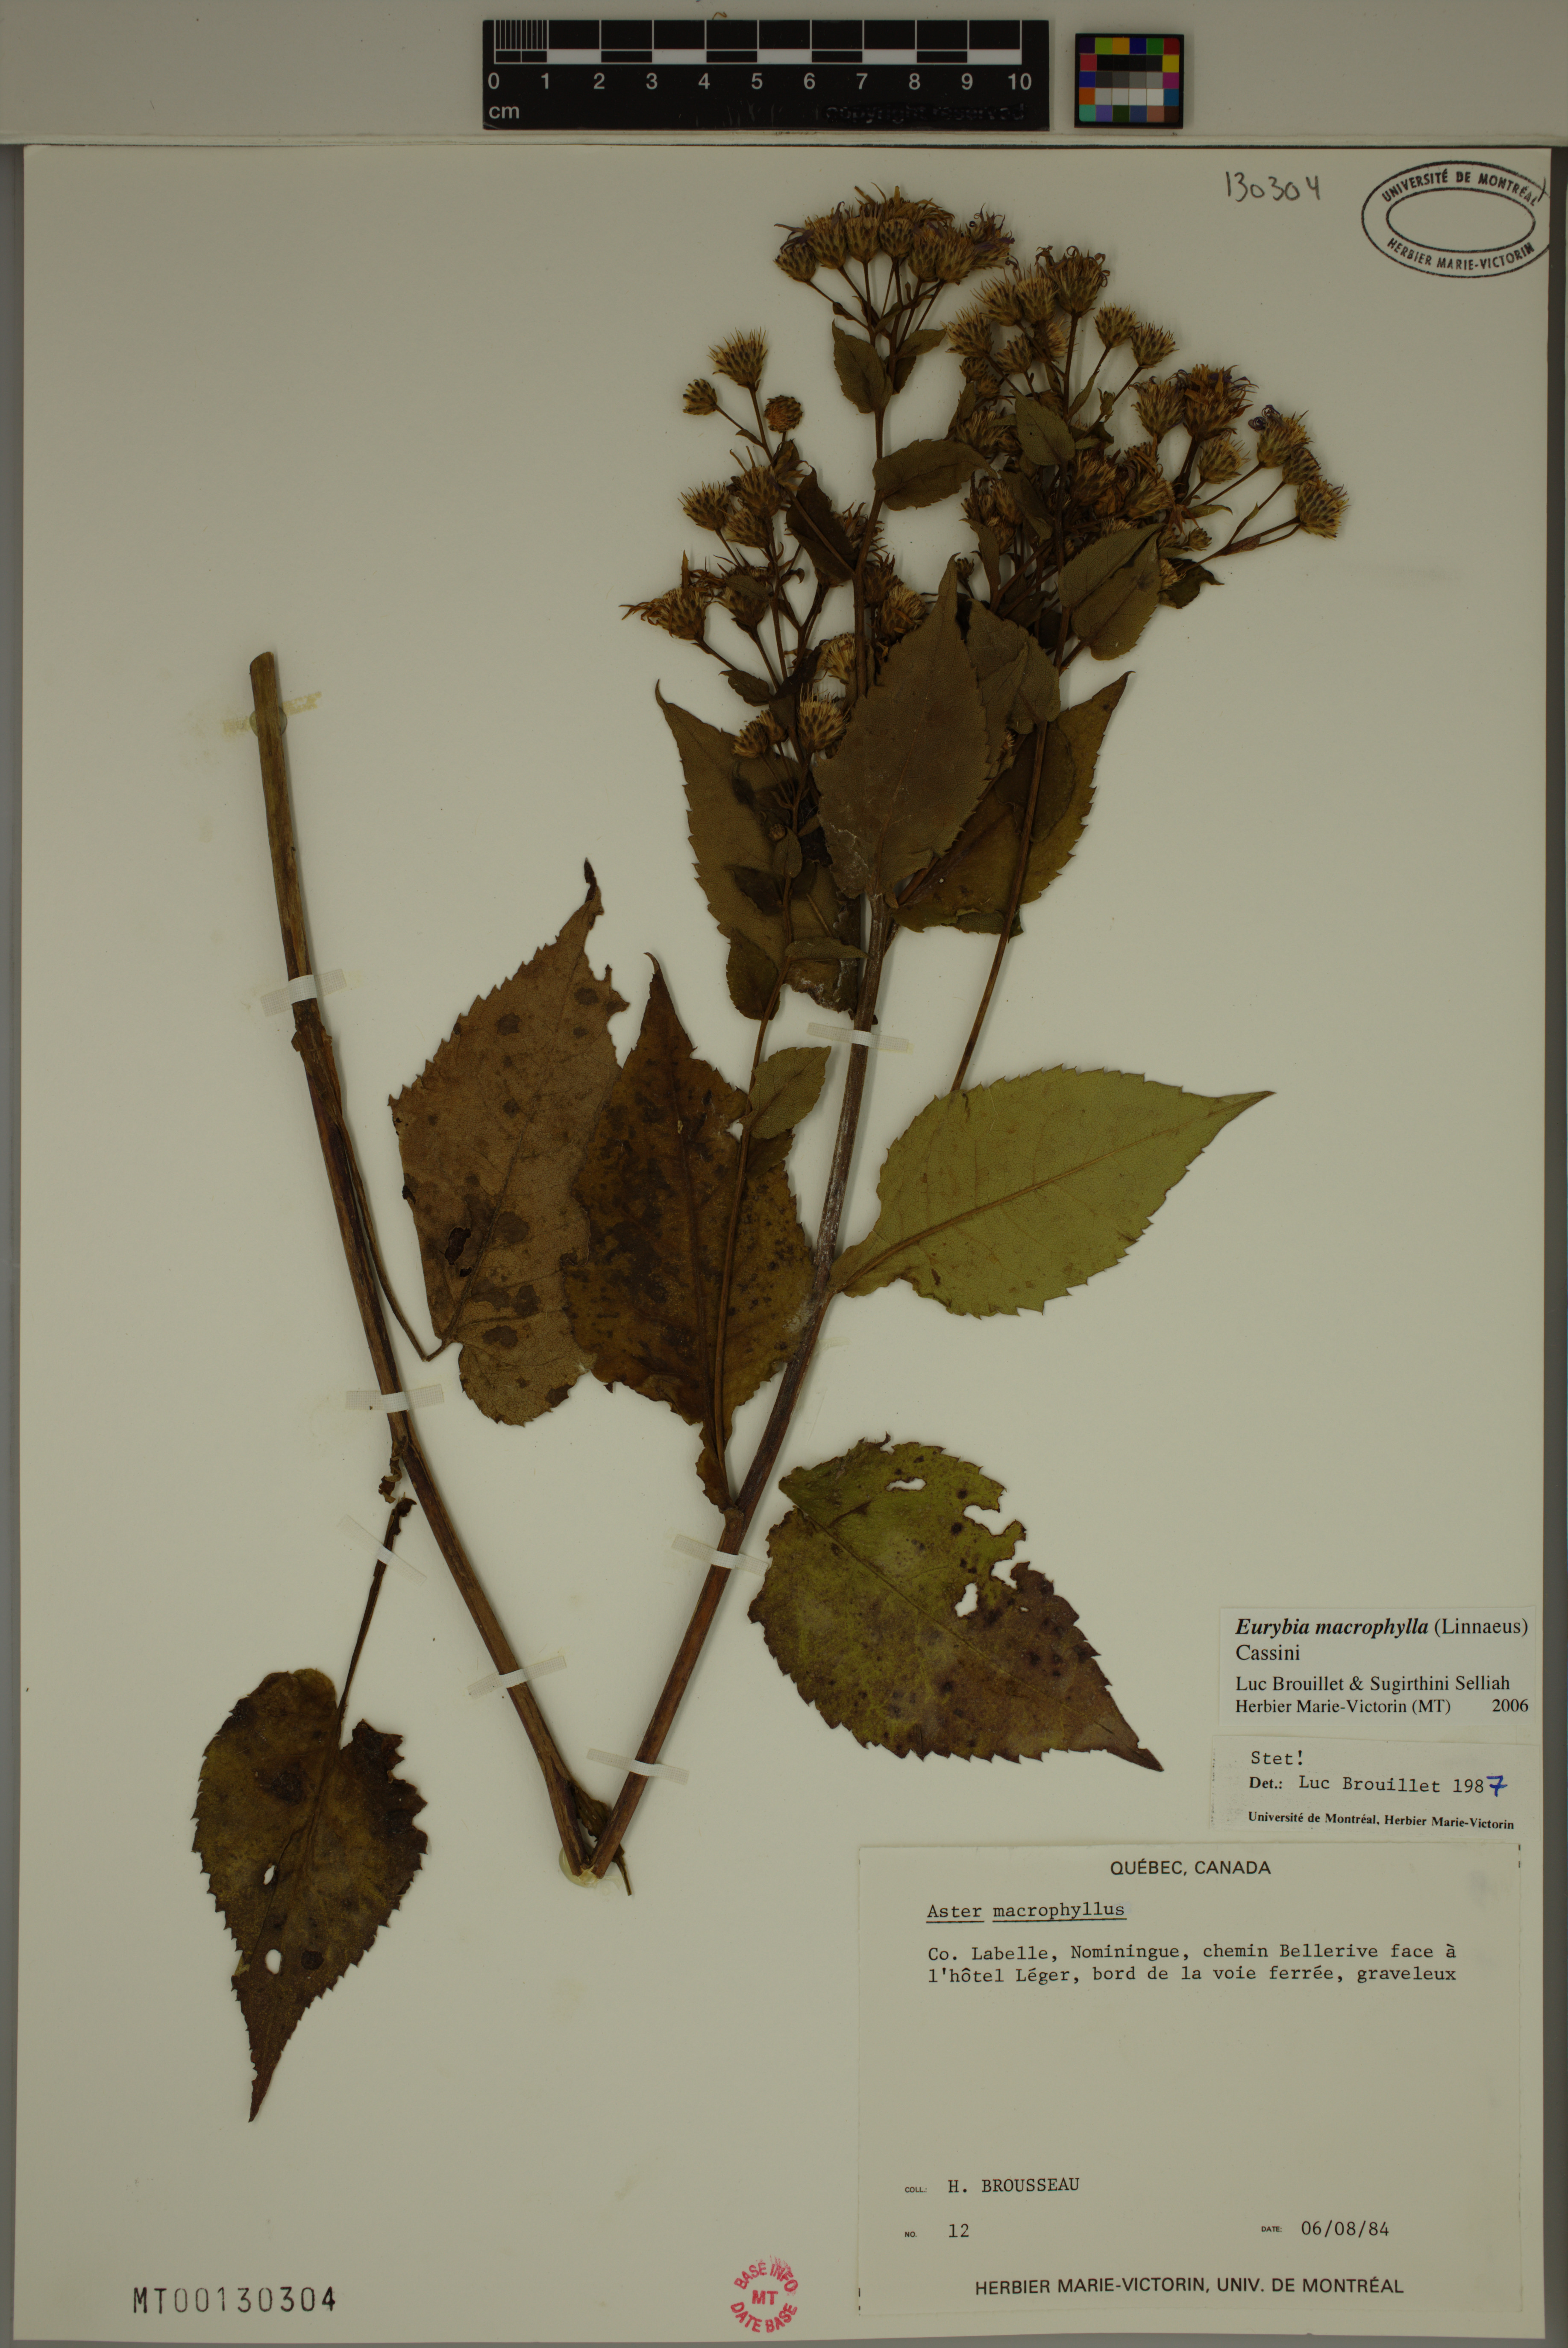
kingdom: Plantae
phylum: Tracheophyta
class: Magnoliopsida
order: Asterales
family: Asteraceae
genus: Eurybia
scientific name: Eurybia macrophylla
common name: Big-leaved aster
